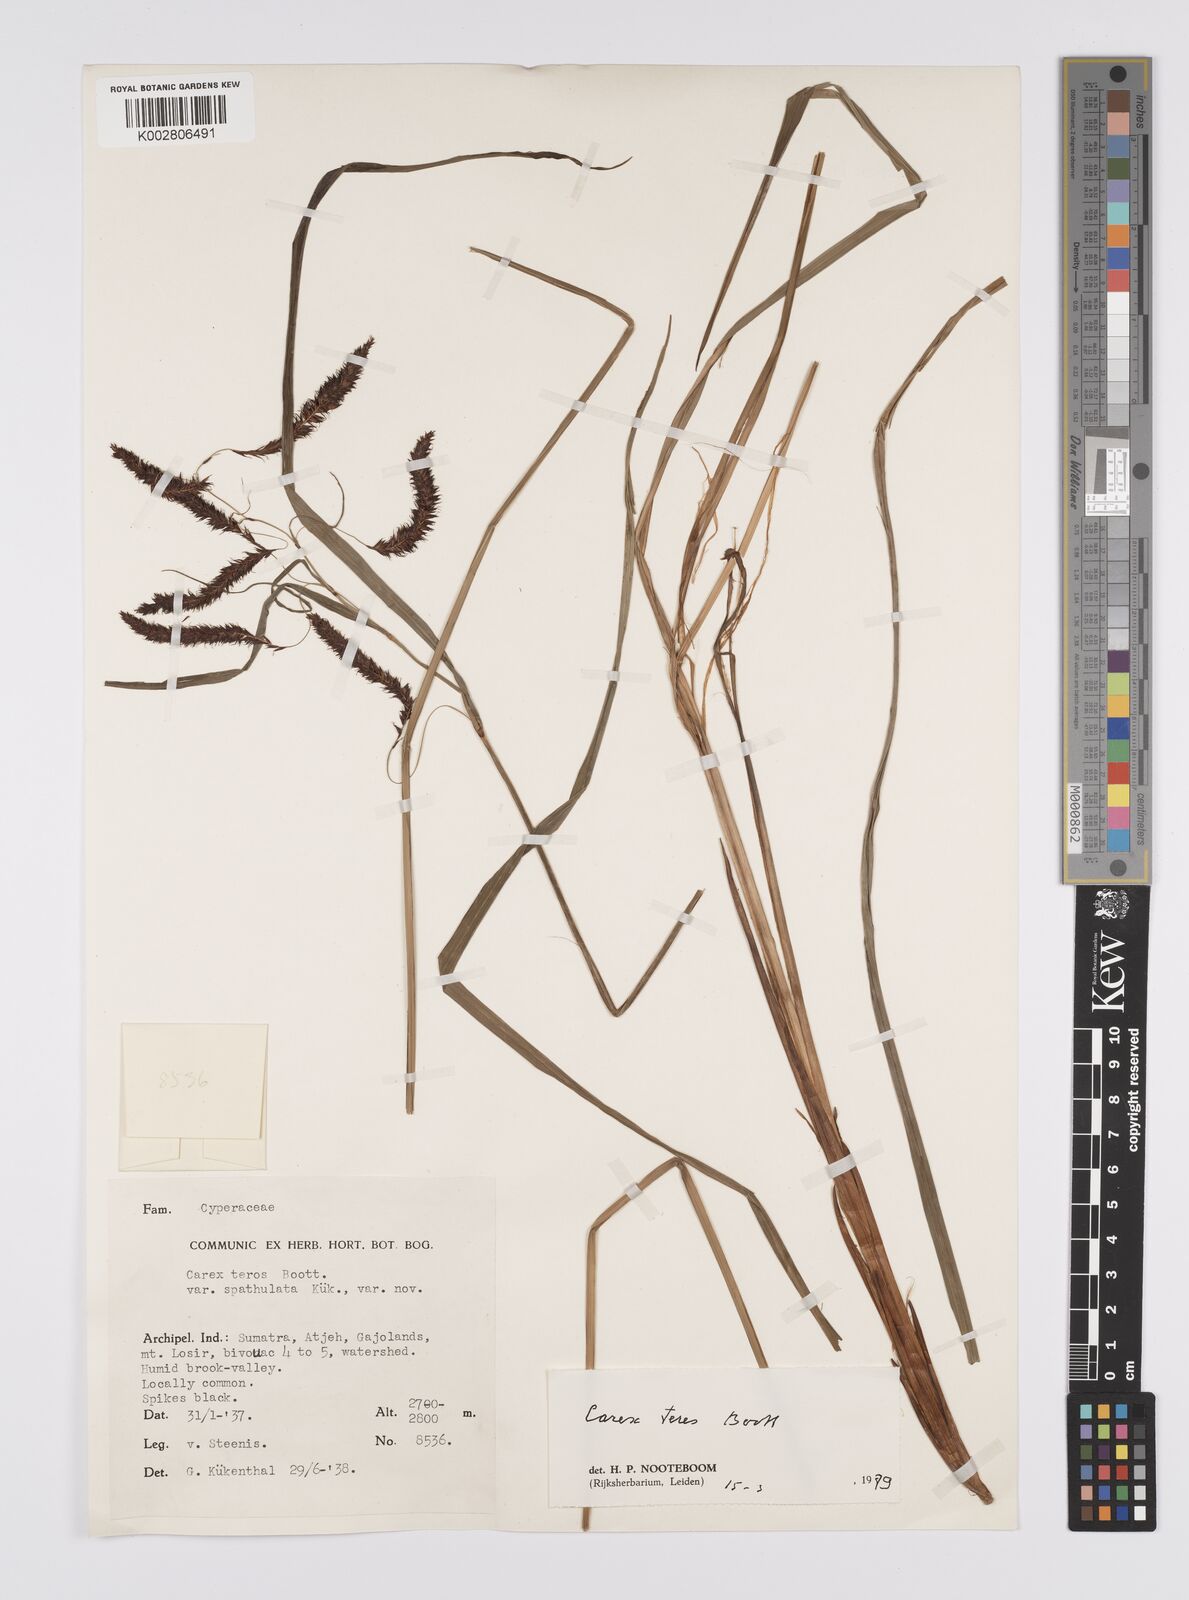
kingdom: Plantae
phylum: Tracheophyta
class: Liliopsida
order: Poales
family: Cyperaceae
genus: Carex
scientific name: Carex teres
